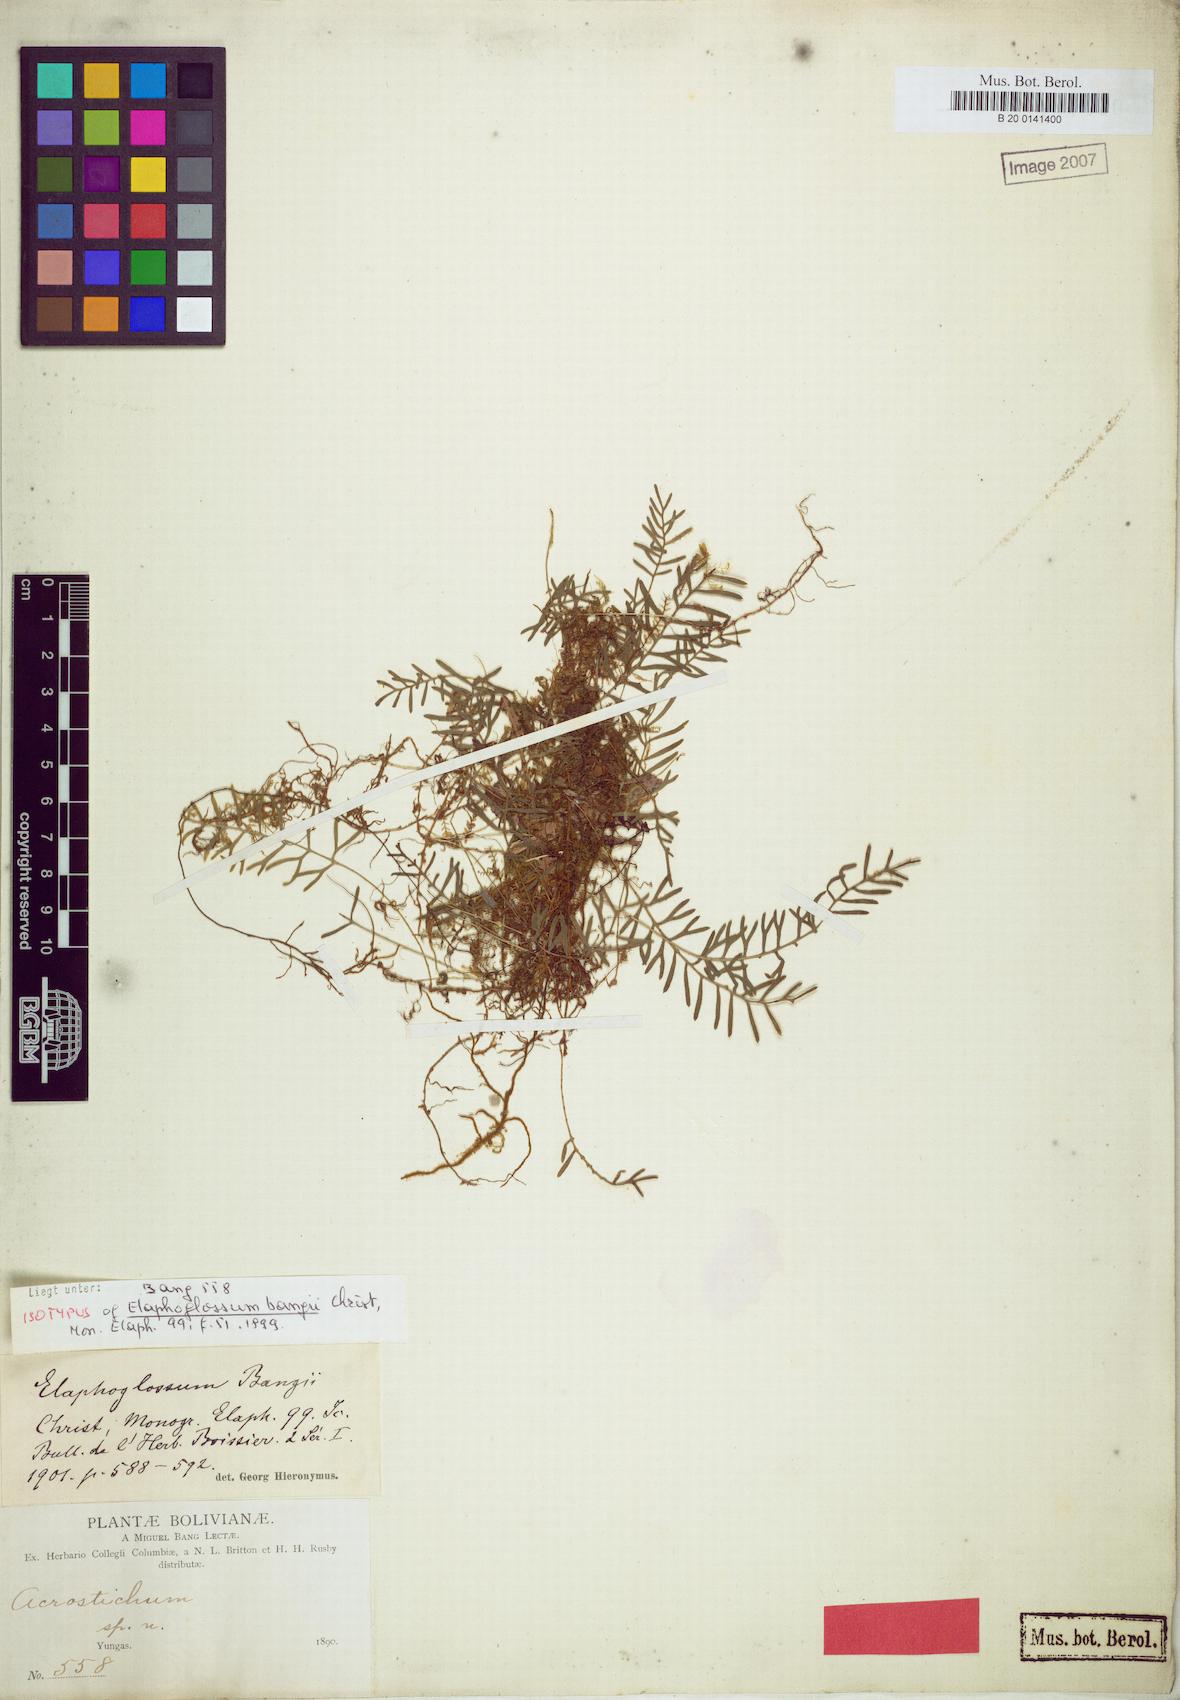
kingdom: Plantae
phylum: Tracheophyta
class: Polypodiopsida
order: Polypodiales
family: Dryopteridaceae
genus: Elaphoglossum
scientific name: Elaphoglossum moorei
